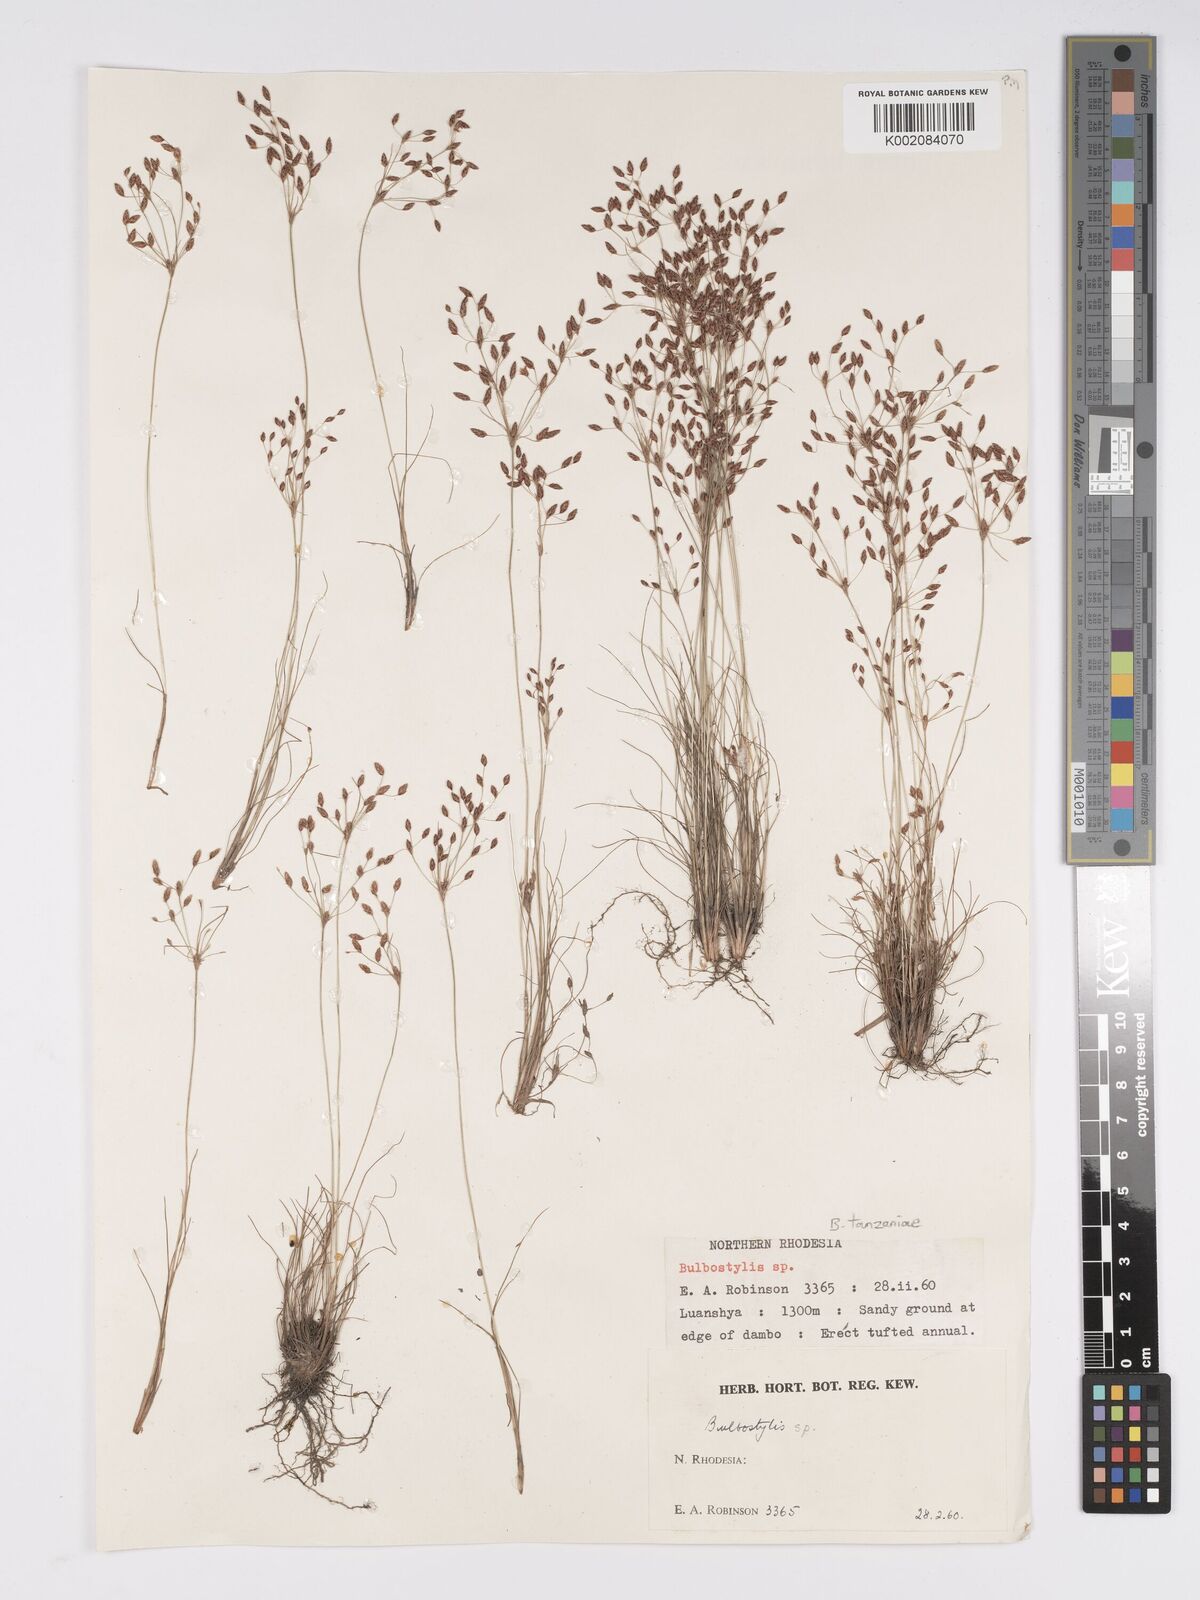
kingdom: Plantae
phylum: Tracheophyta
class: Liliopsida
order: Poales
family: Cyperaceae
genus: Bulbostylis
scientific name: Bulbostylis tanzaniae
